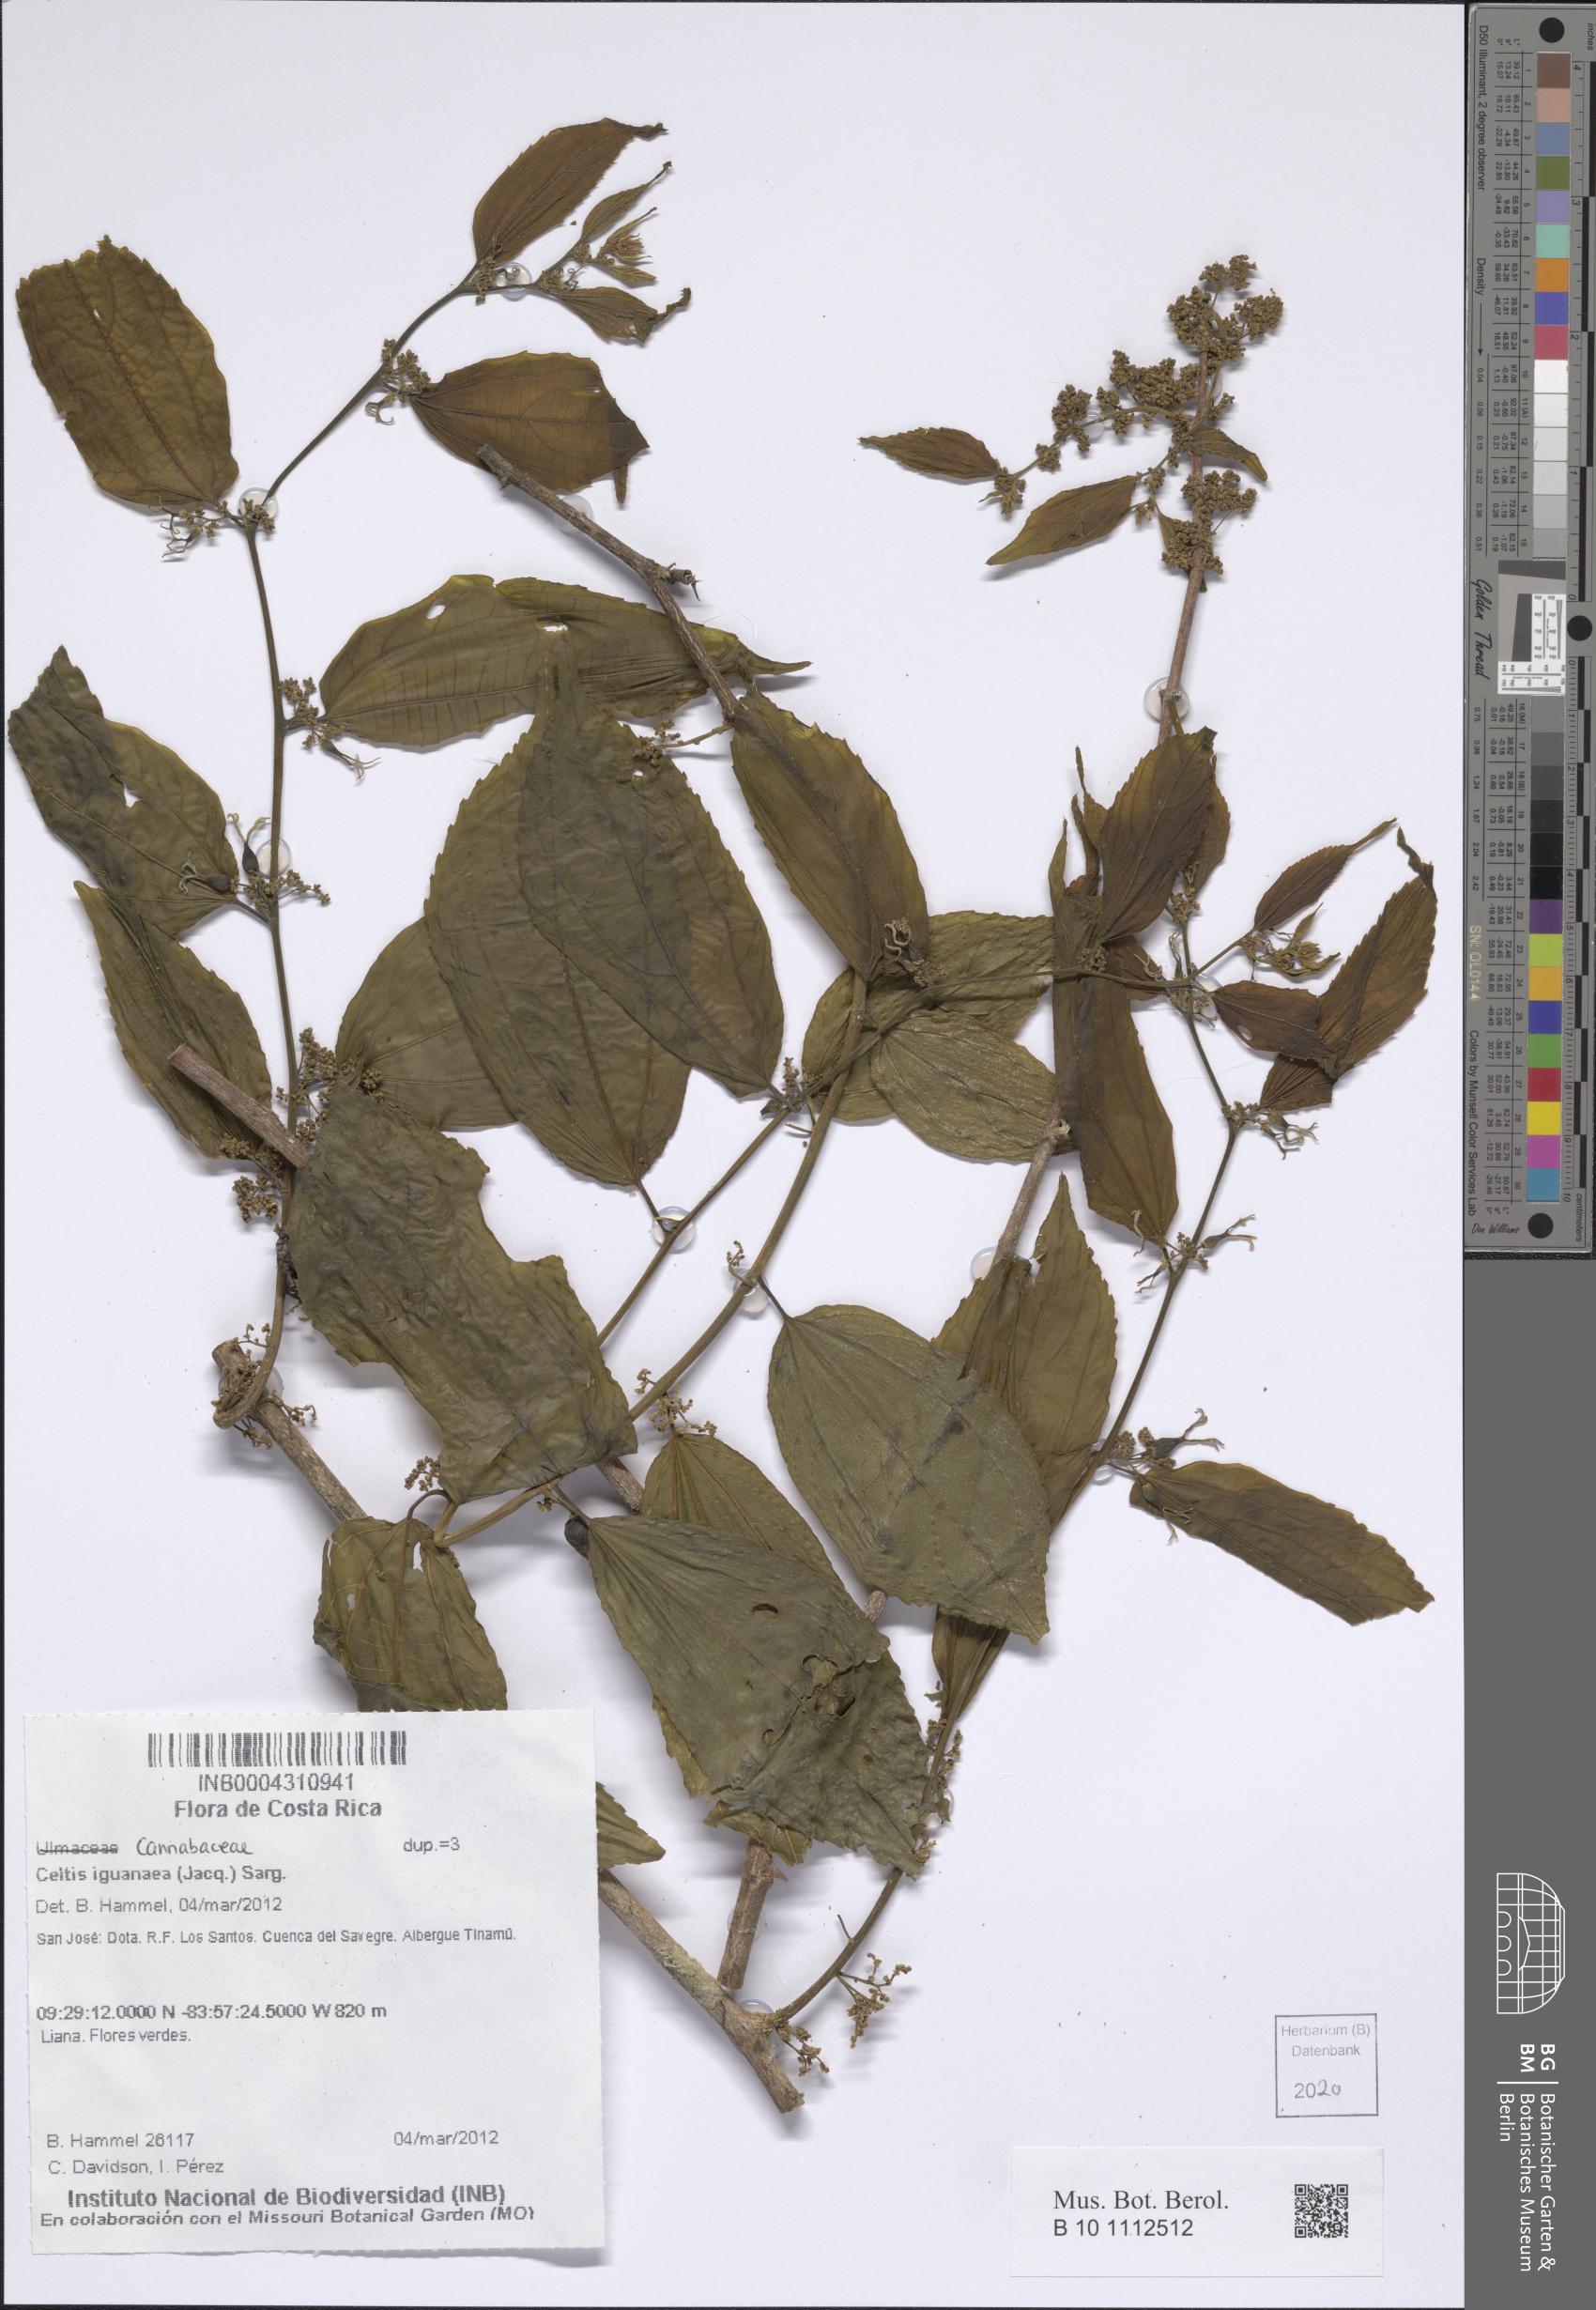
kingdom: Plantae
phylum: Tracheophyta
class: Magnoliopsida
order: Rosales
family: Cannabaceae
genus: Celtis
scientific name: Celtis iguanaea
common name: Iguana hackberry
